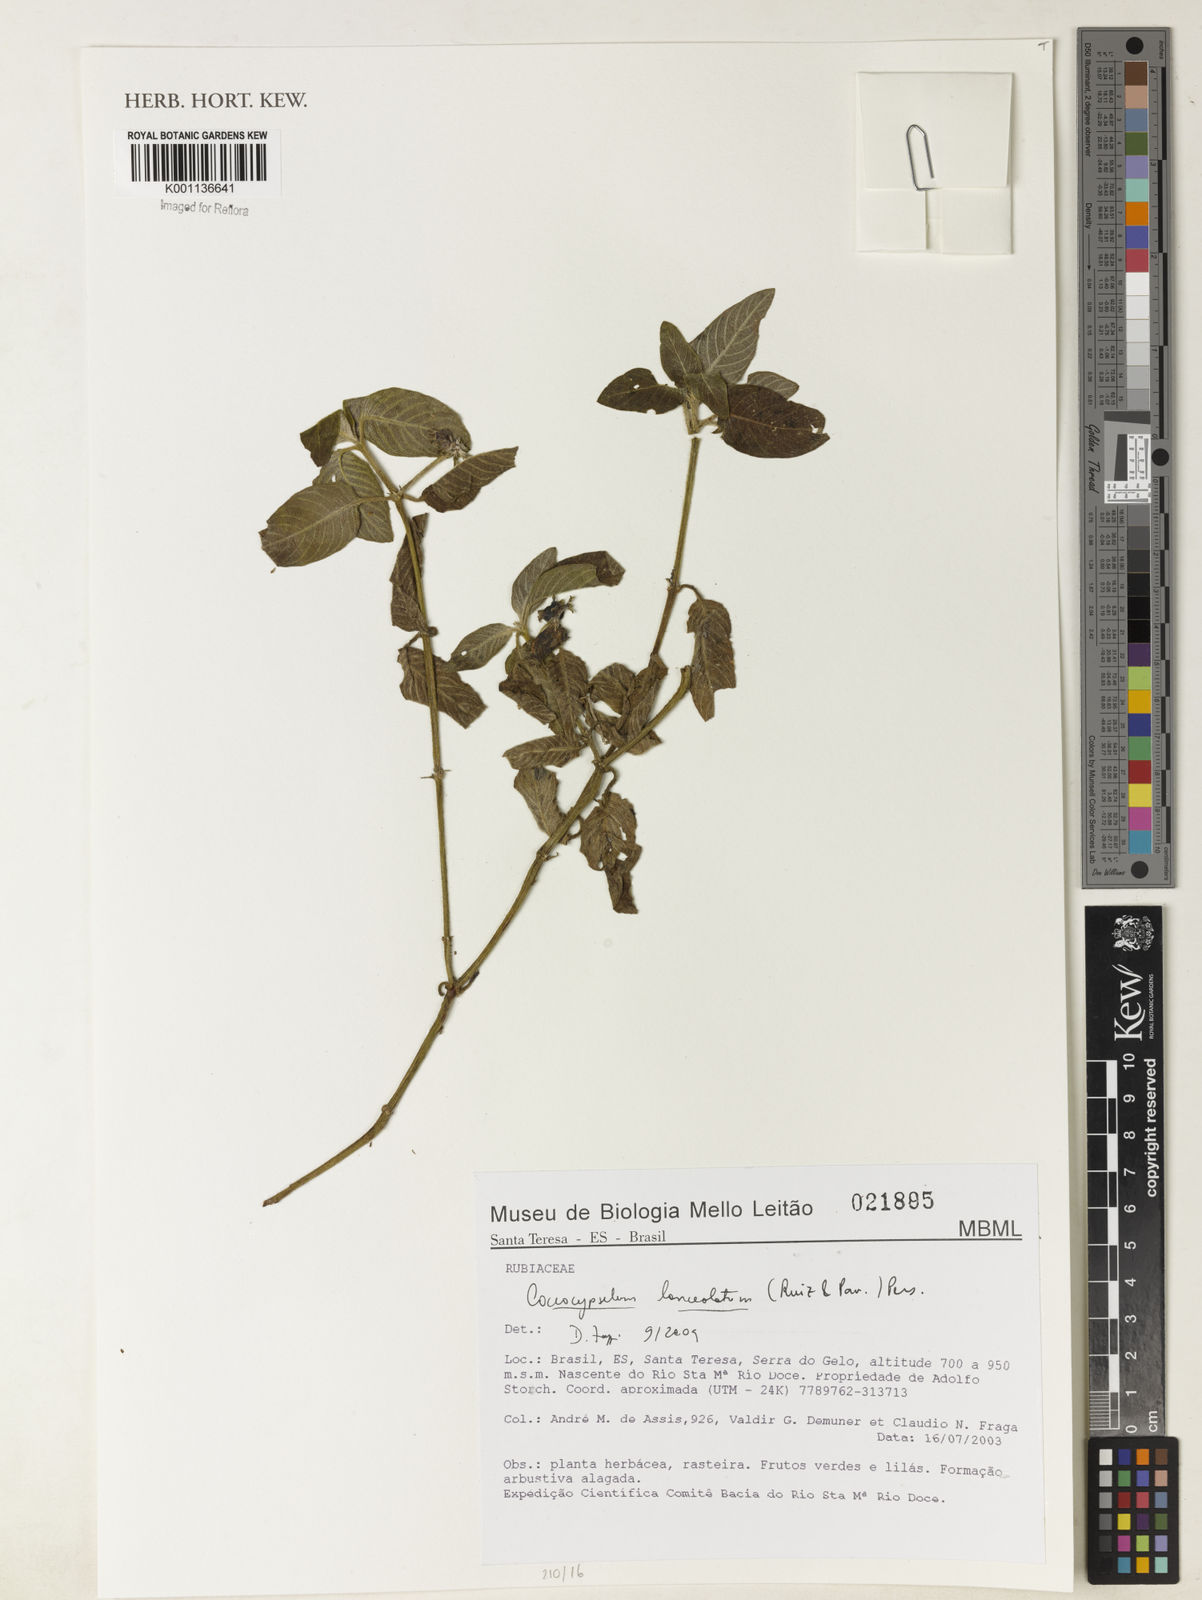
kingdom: Plantae
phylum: Tracheophyta
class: Magnoliopsida
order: Gentianales
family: Rubiaceae
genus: Coccocypselum
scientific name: Coccocypselum lanceolatum
